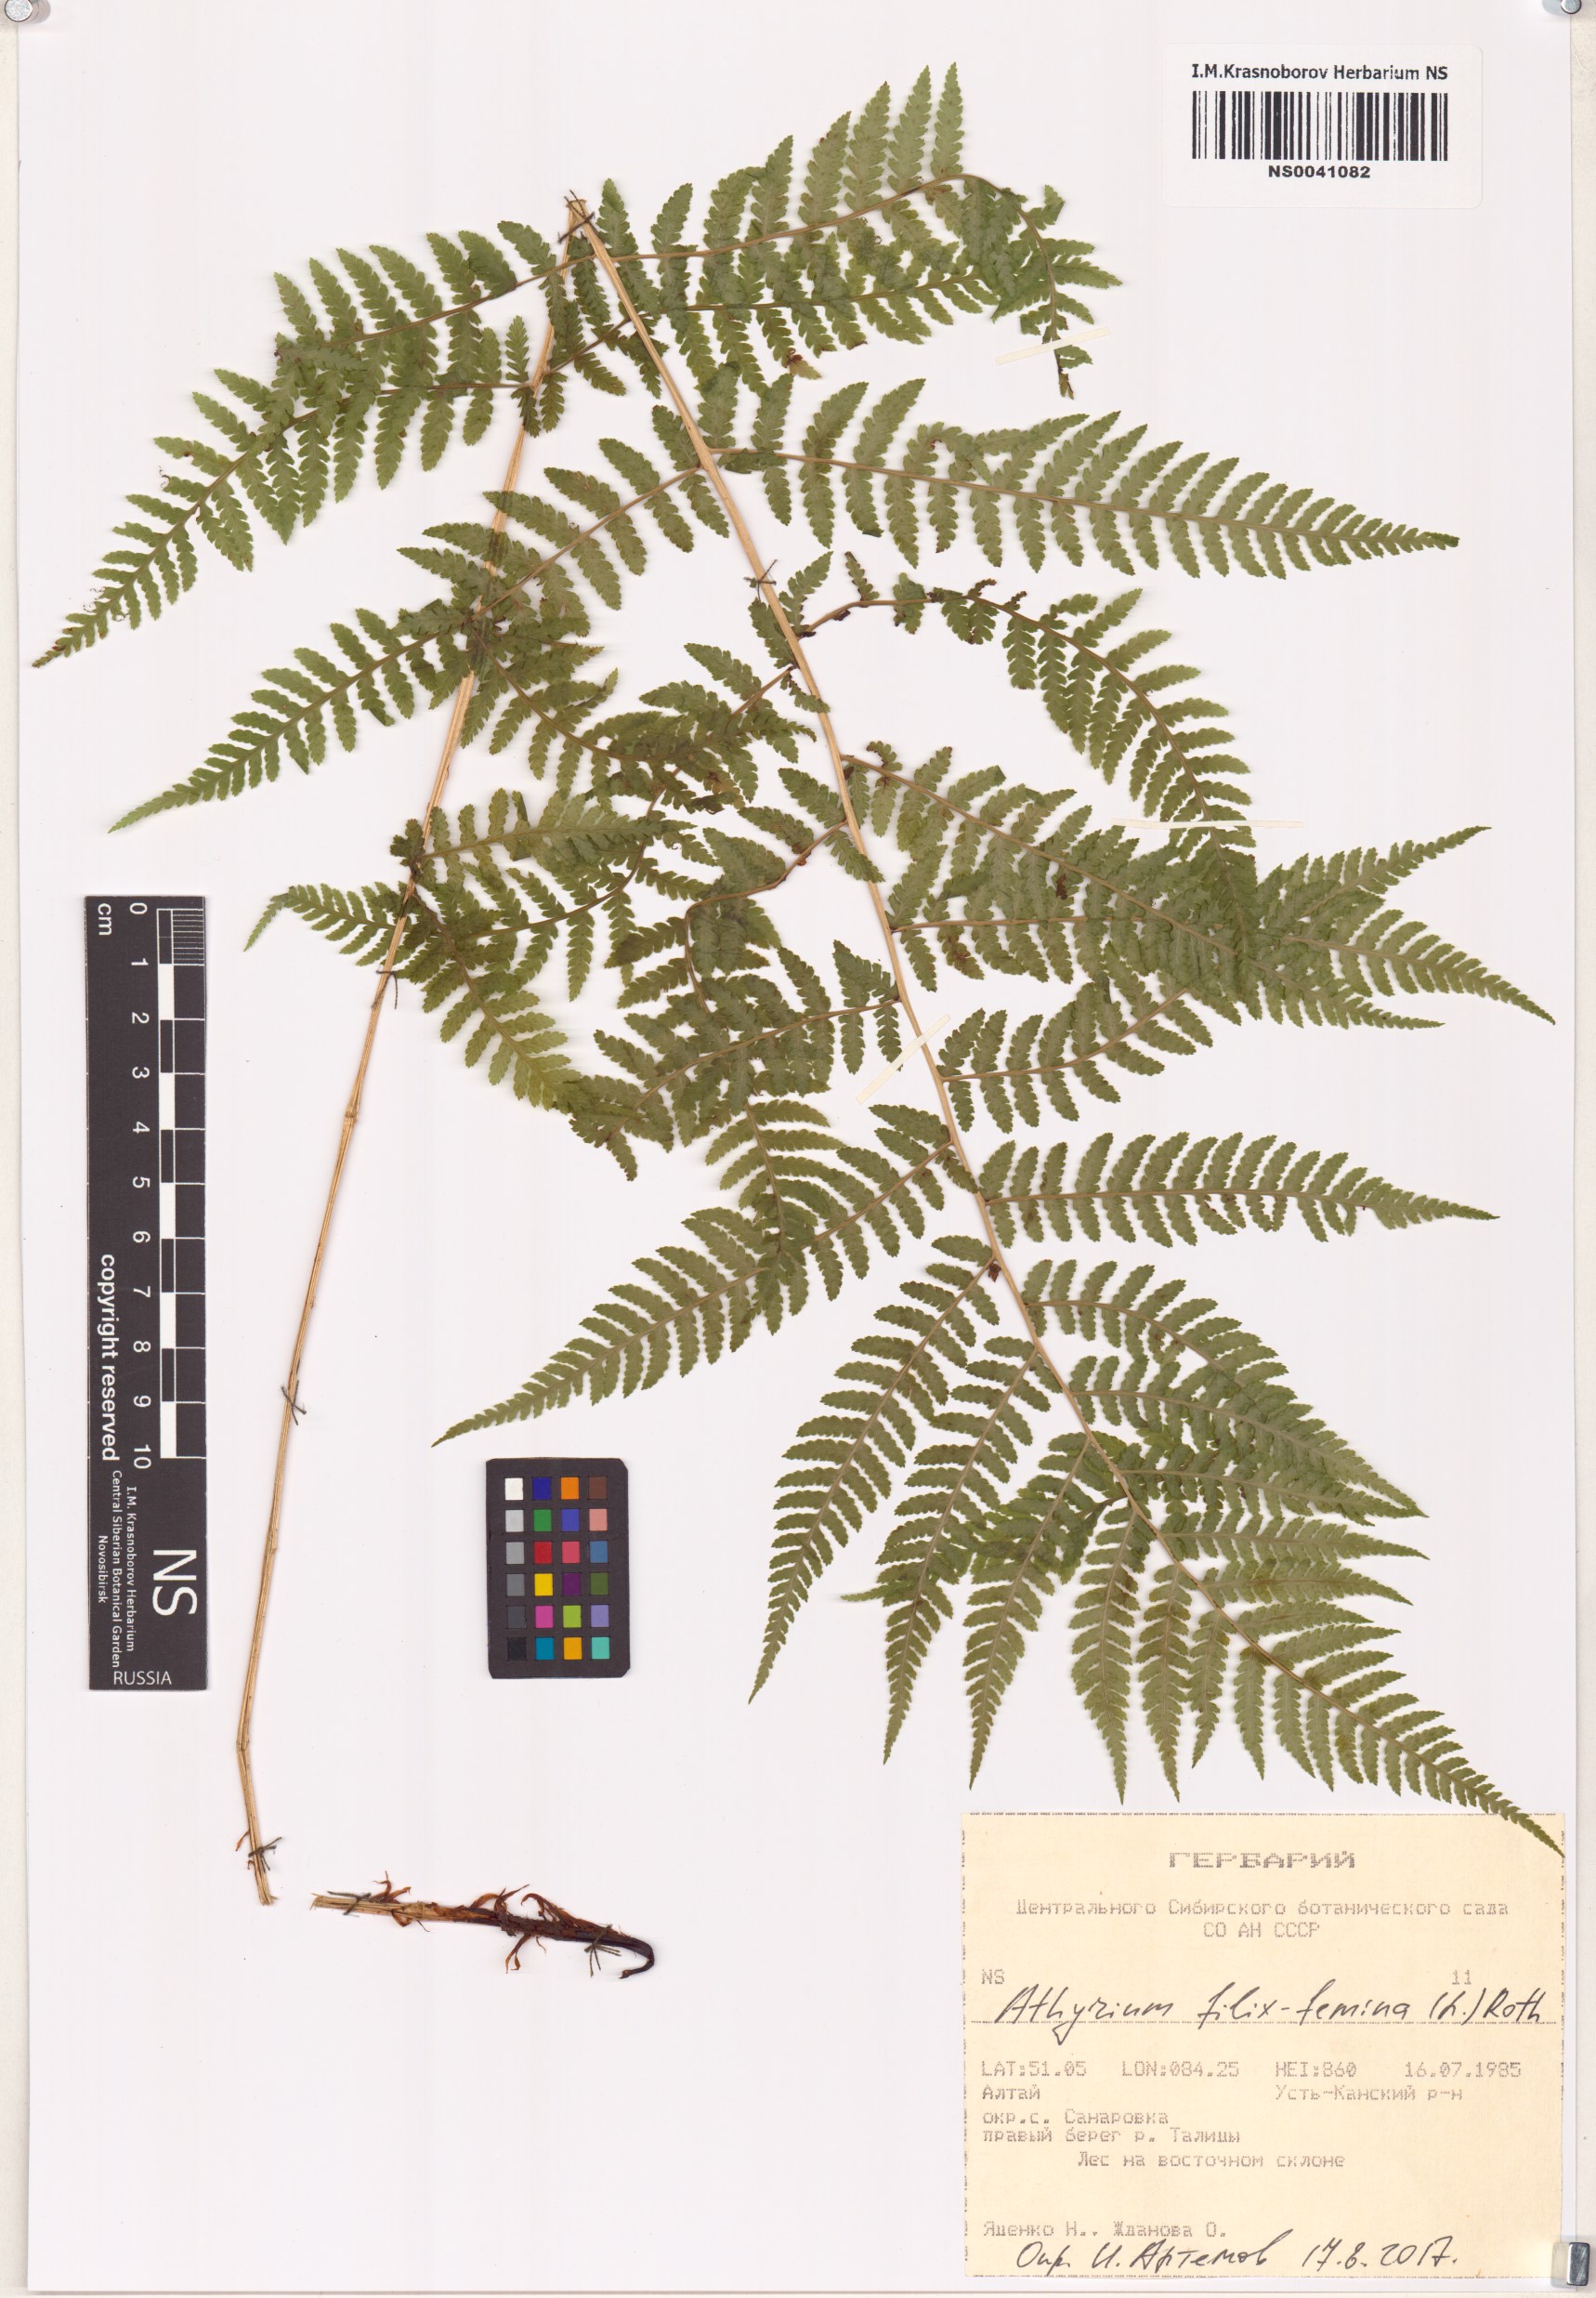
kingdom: Plantae
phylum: Tracheophyta
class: Polypodiopsida
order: Polypodiales
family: Athyriaceae
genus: Athyrium
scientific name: Athyrium filix-femina
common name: Lady fern
